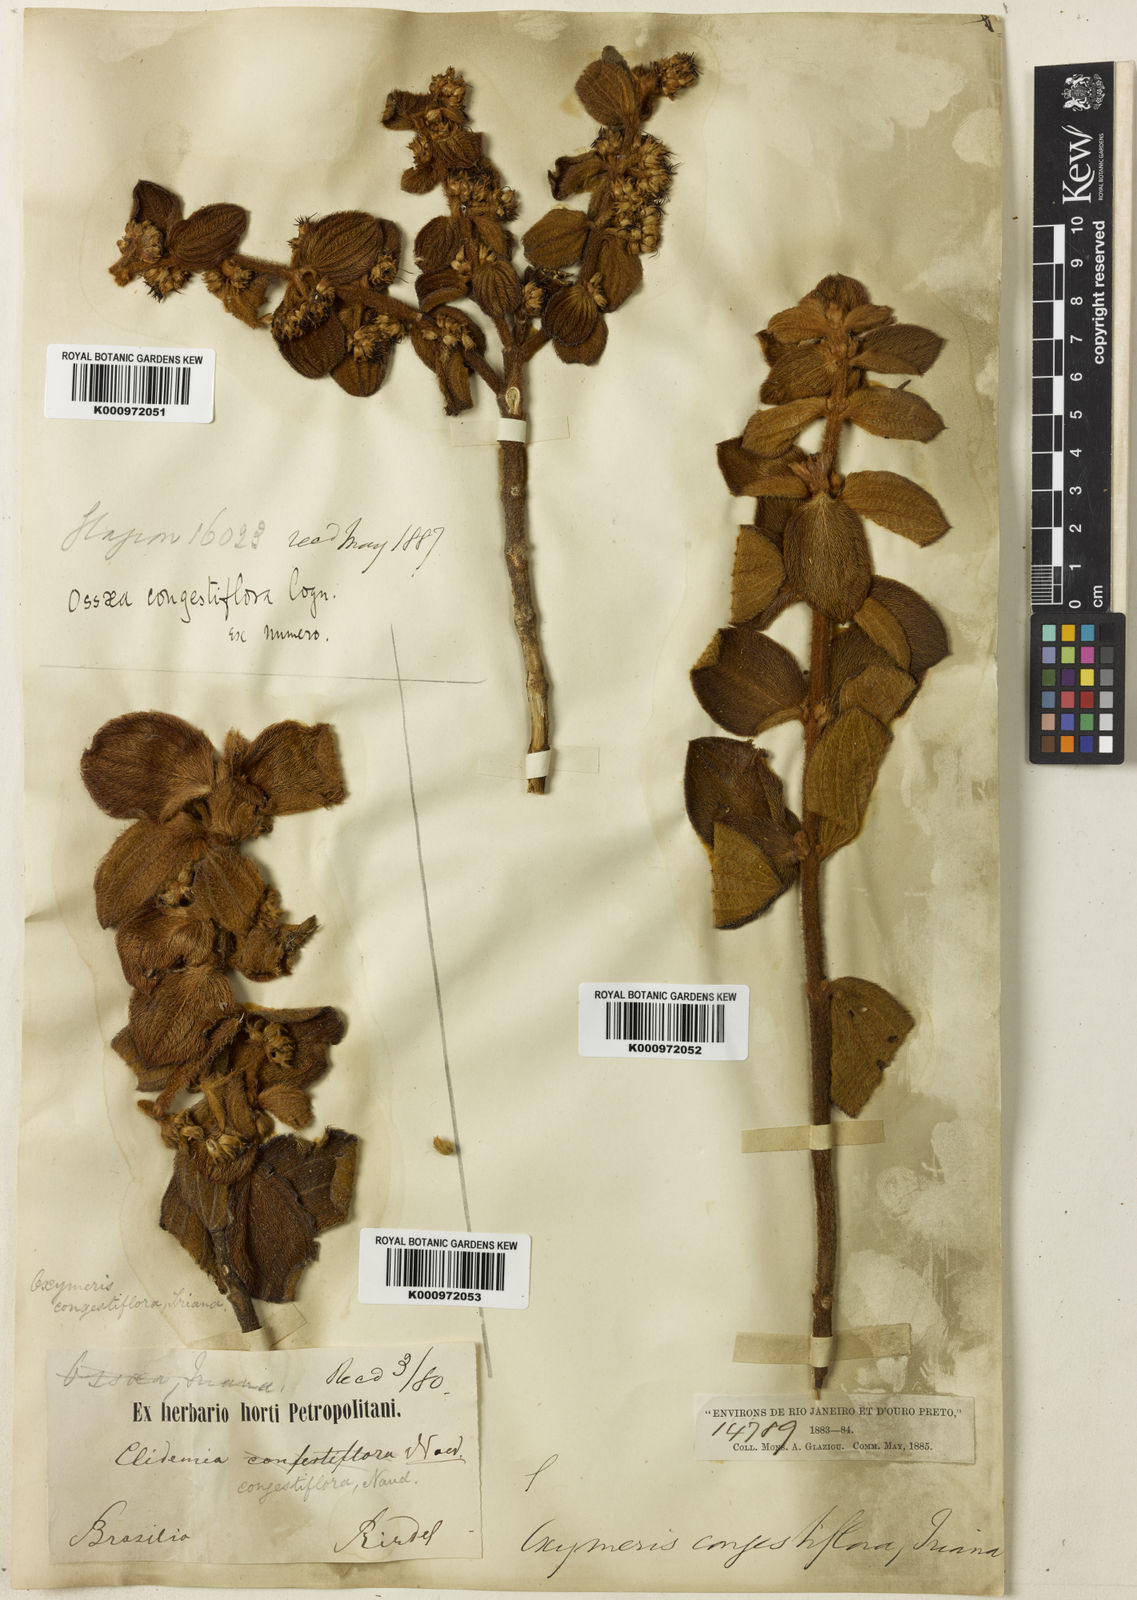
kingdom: Plantae
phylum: Tracheophyta
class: Magnoliopsida
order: Myrtales
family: Melastomataceae
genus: Miconia
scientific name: Miconia leacongestiflora
